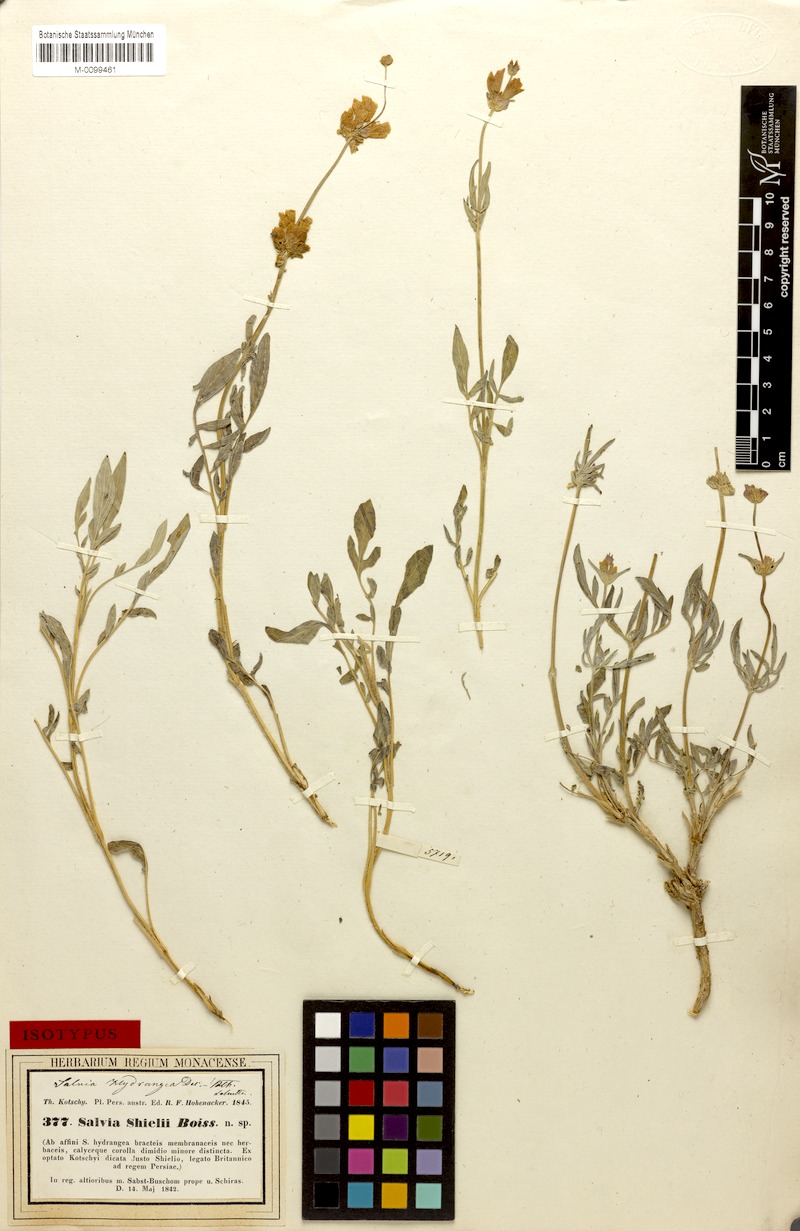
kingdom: Plantae
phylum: Tracheophyta
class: Magnoliopsida
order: Lamiales
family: Lamiaceae
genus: Salvia
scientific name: Salvia hydrangea
